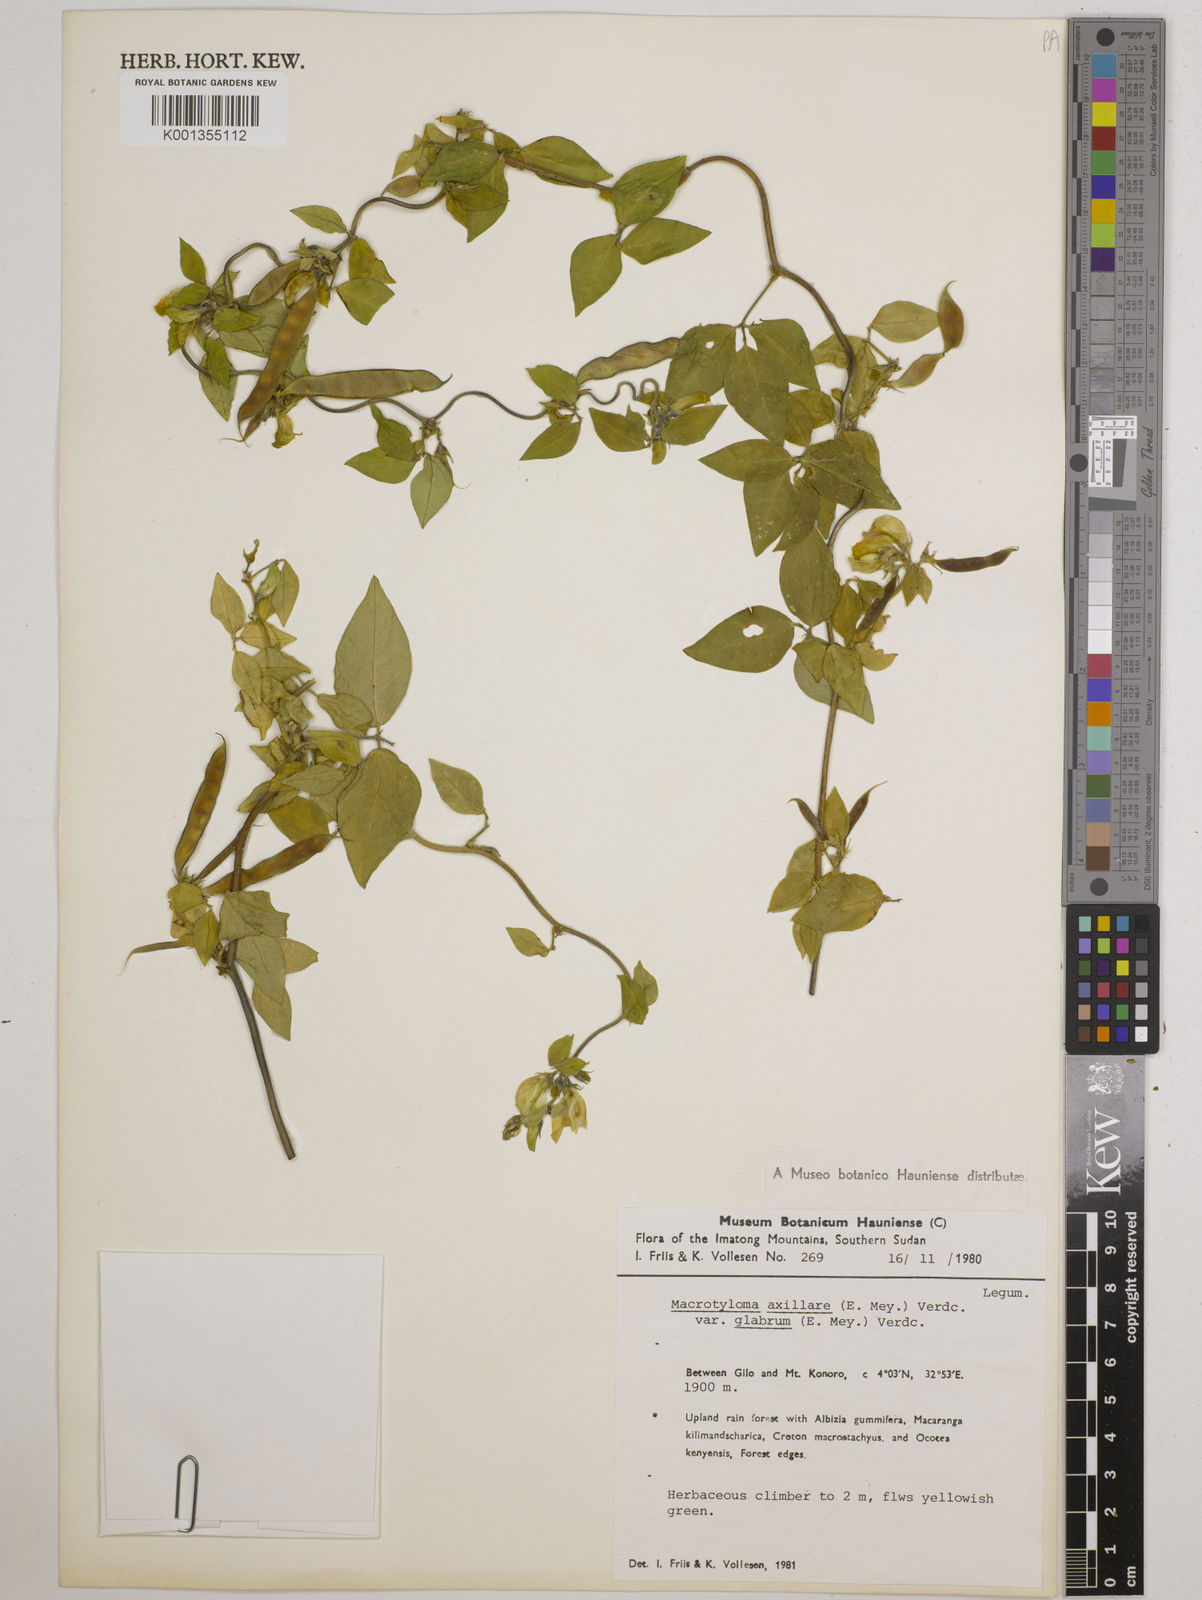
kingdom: Plantae
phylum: Tracheophyta
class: Magnoliopsida
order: Fabales
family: Fabaceae
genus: Macrotyloma
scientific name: Macrotyloma
